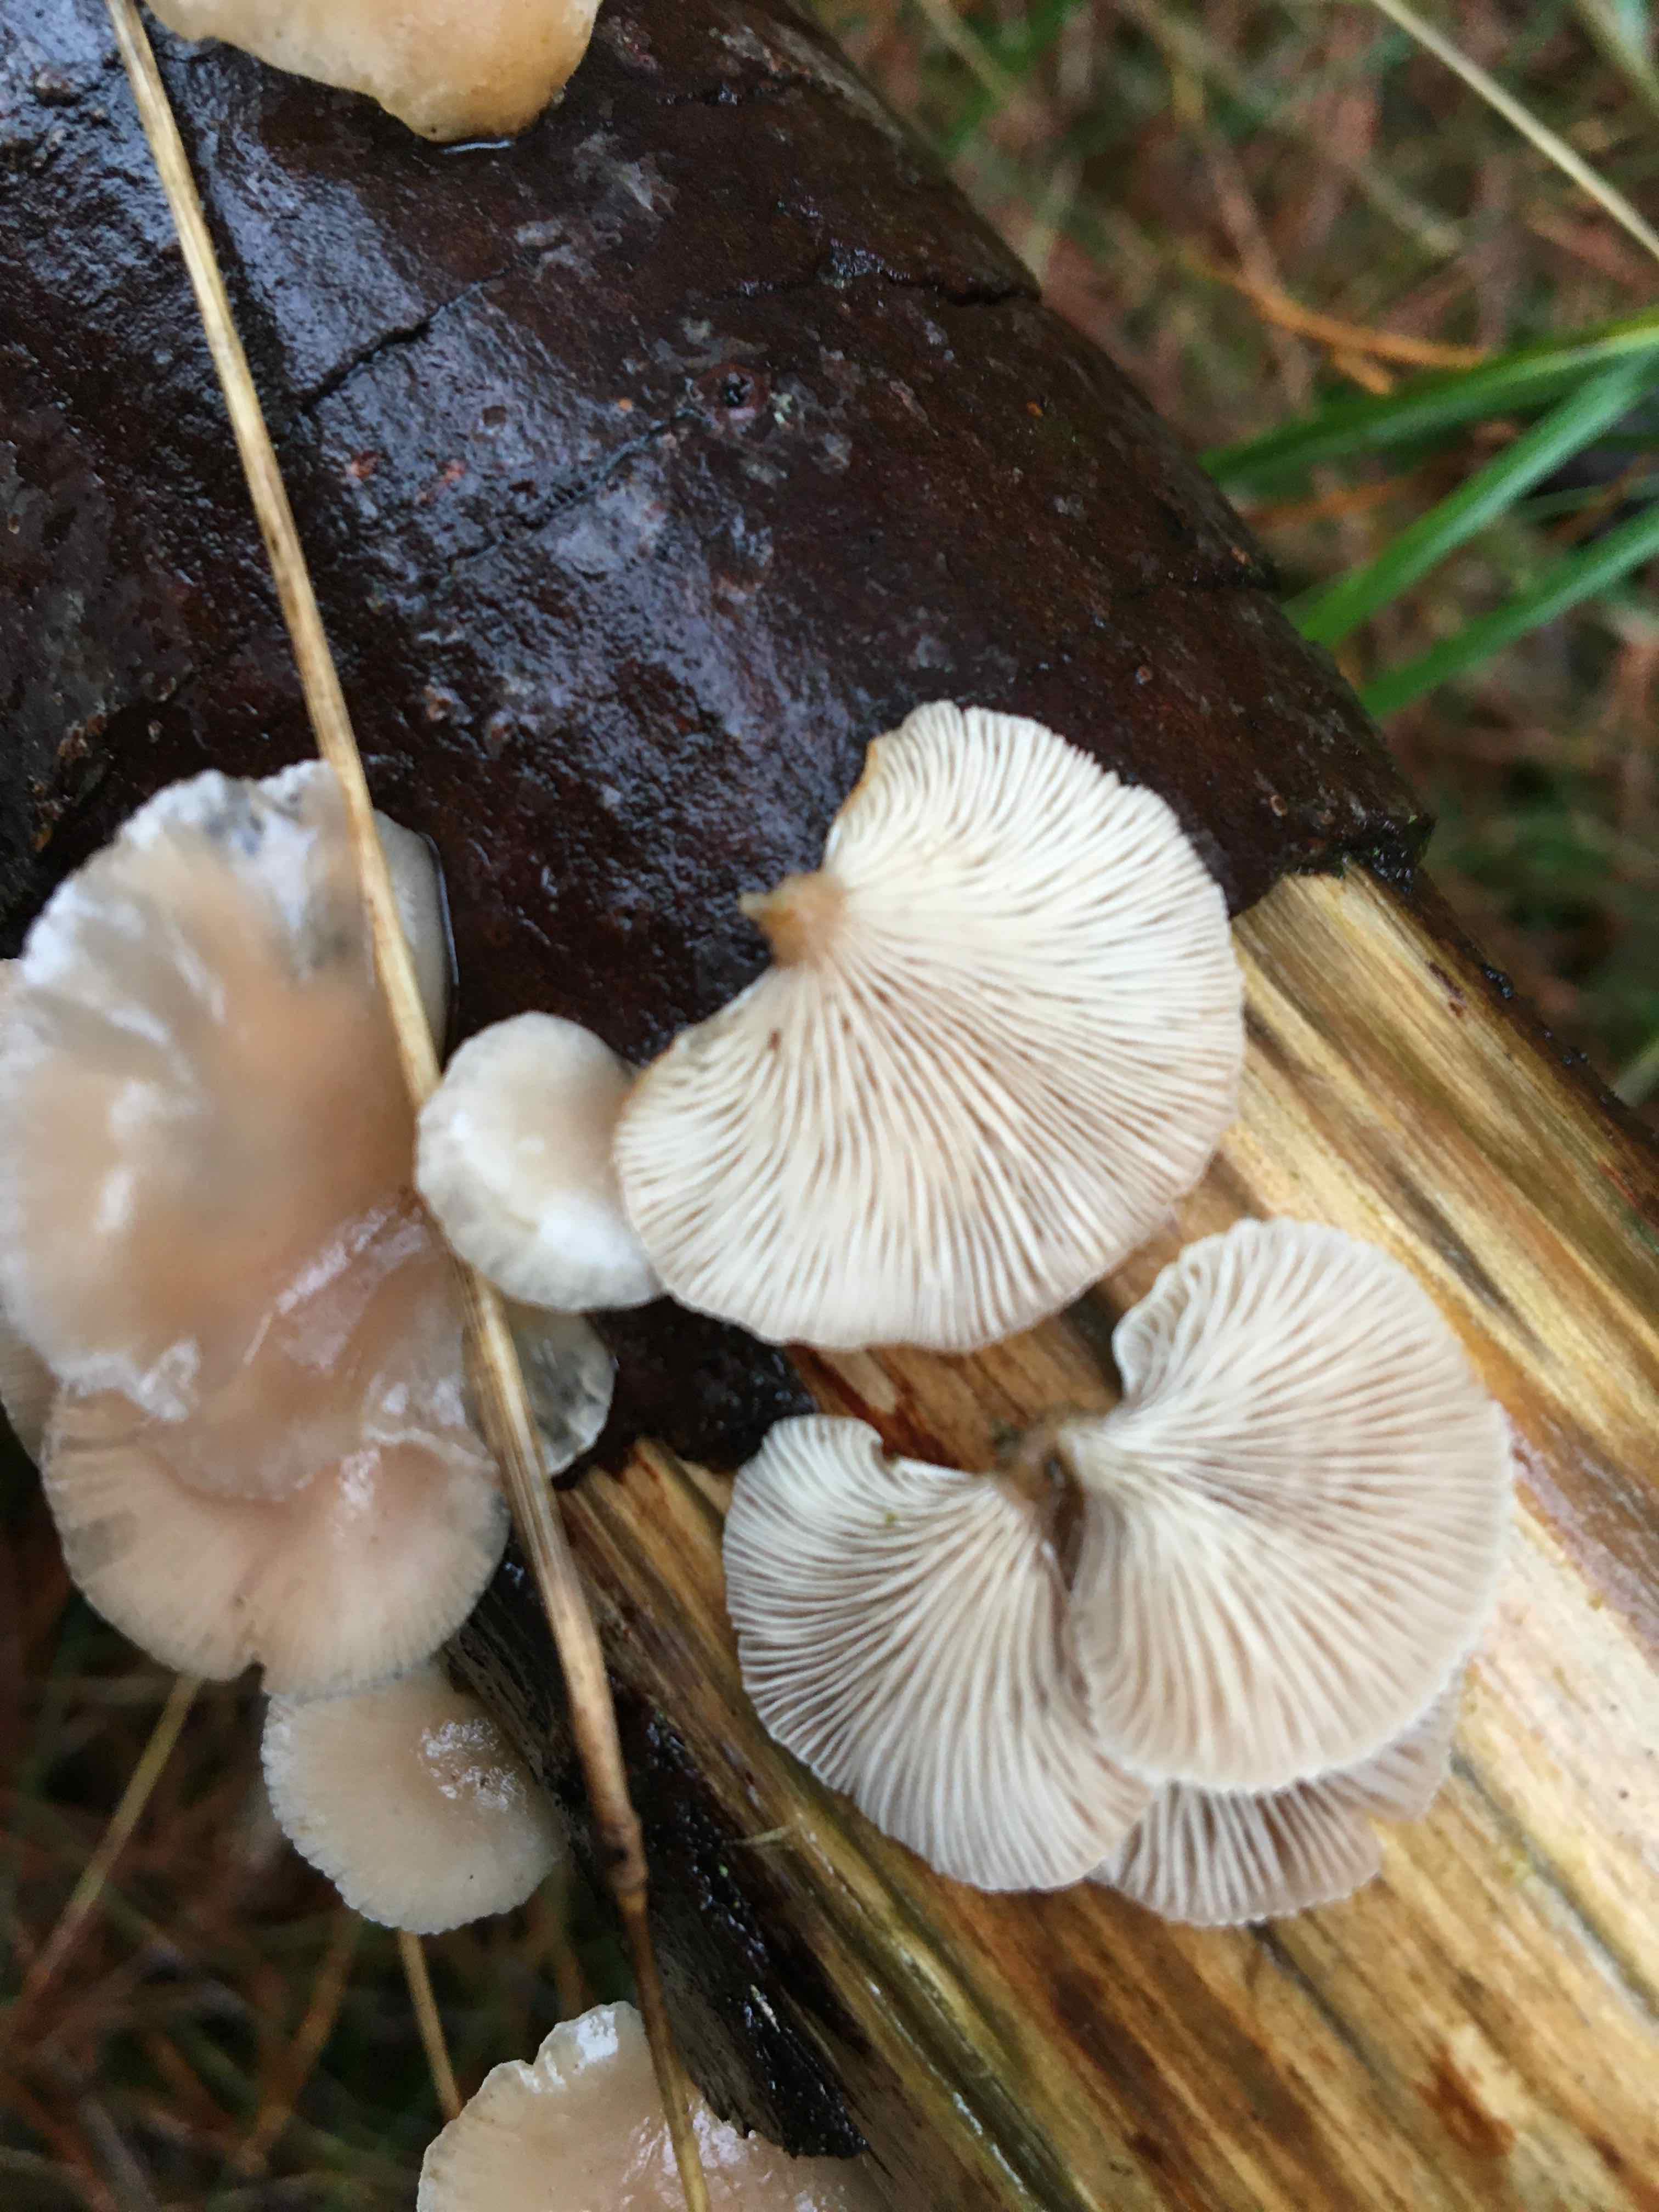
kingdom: Fungi
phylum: Basidiomycota
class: Agaricomycetes
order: Agaricales
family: Mycenaceae
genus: Panellus
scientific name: Panellus mitis
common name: mild epaulethat
